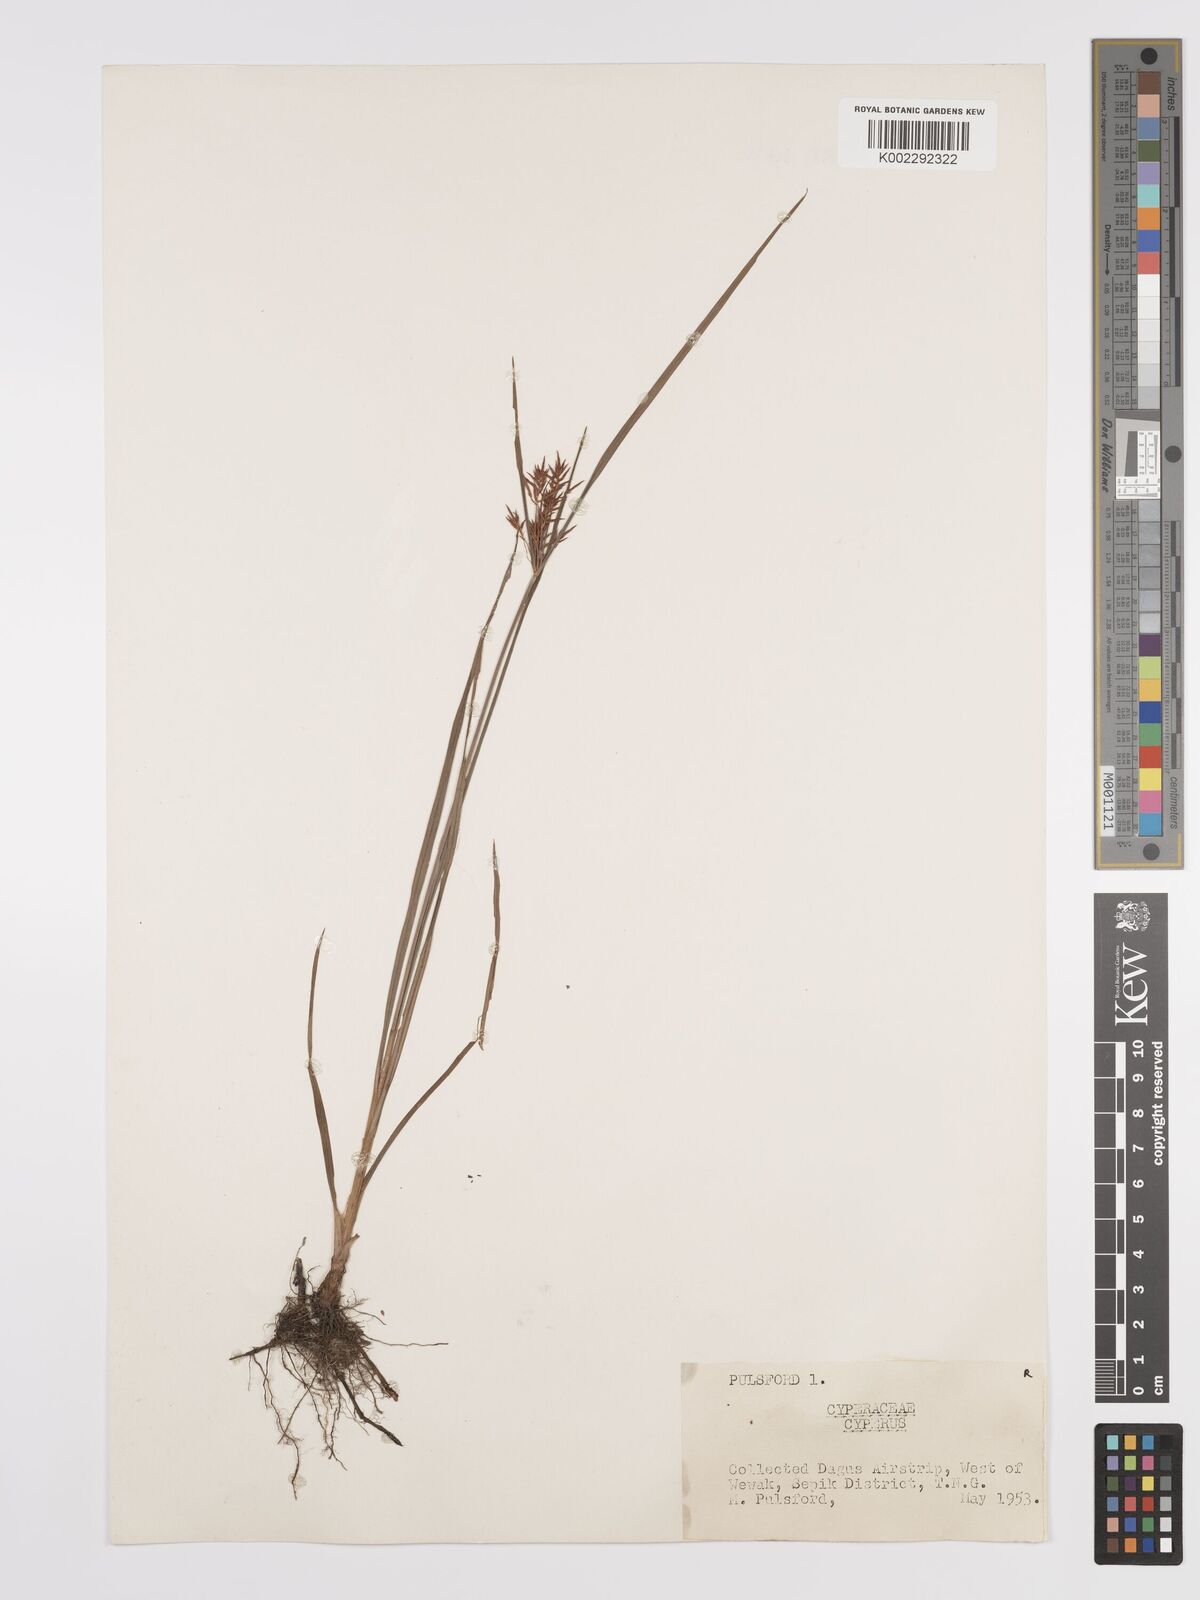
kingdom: Plantae
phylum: Tracheophyta
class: Liliopsida
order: Poales
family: Cyperaceae
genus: Cyperus
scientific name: Cyperus rotundus
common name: Nutgrass
